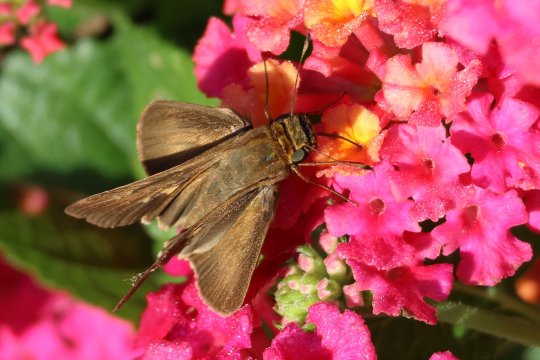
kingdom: Animalia
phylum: Arthropoda
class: Insecta
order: Lepidoptera
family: Hesperiidae
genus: Panoquina
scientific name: Panoquina ocola
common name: Ocola Skipper
